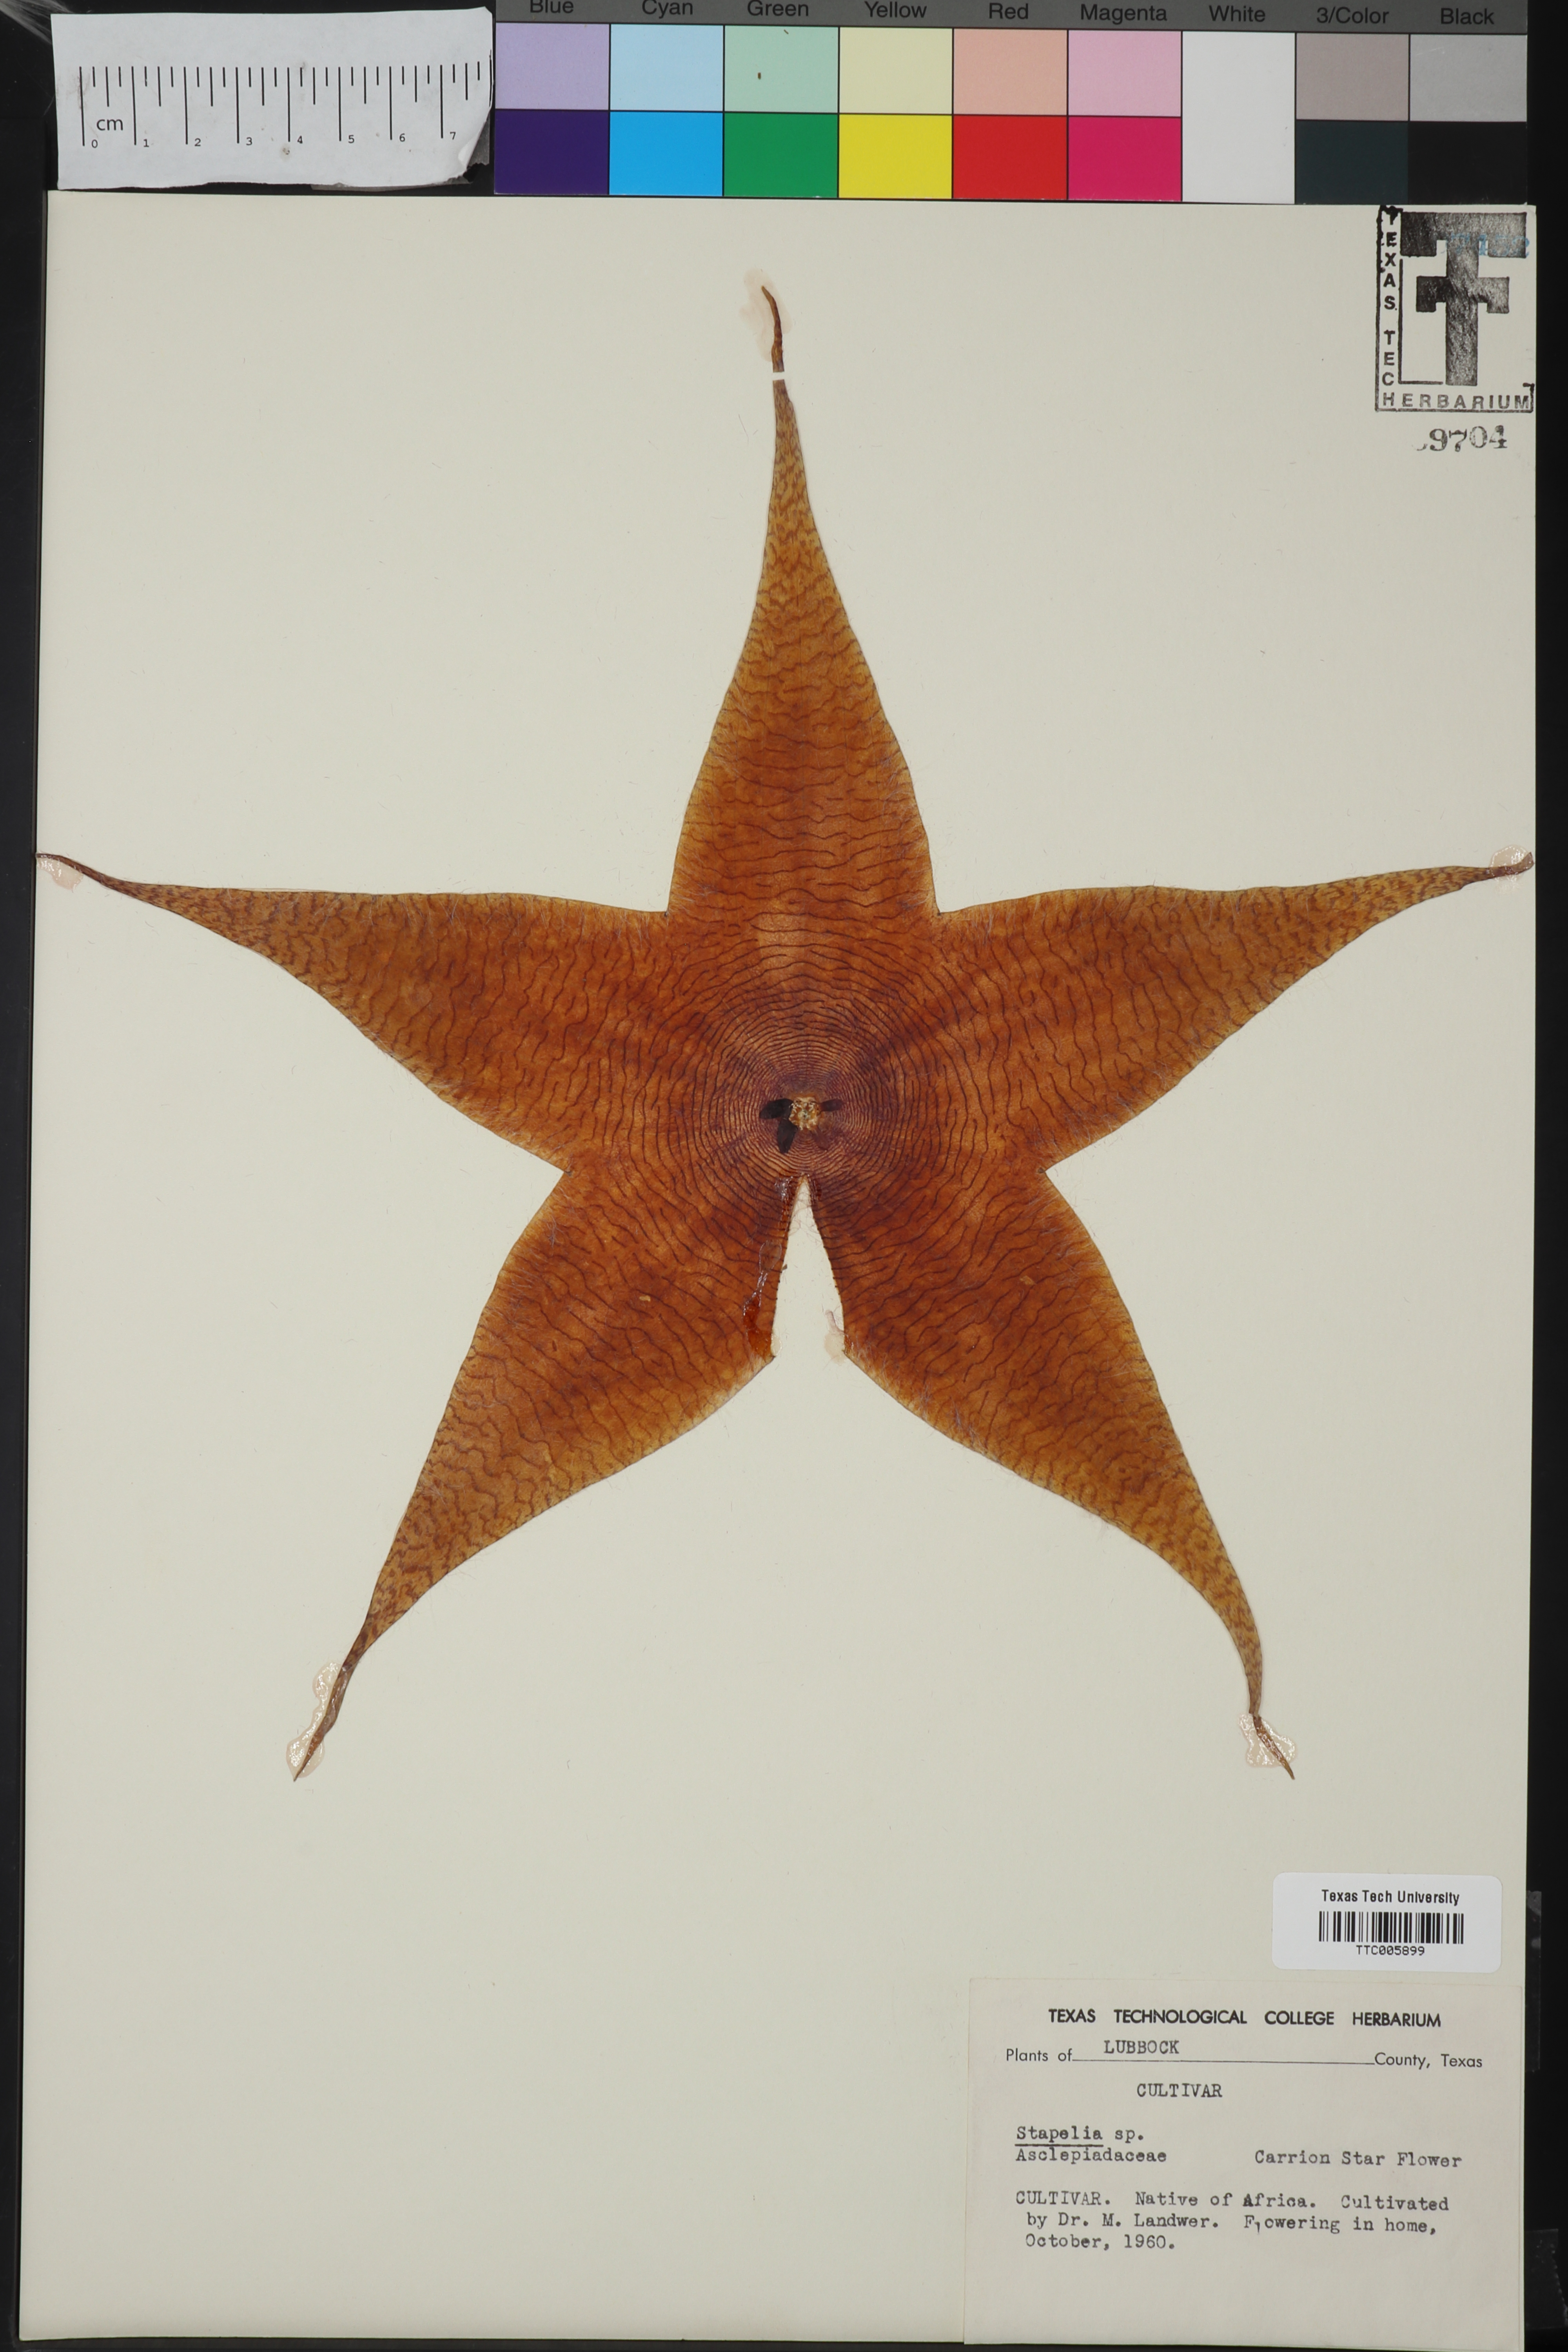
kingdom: Plantae
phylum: Tracheophyta
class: Magnoliopsida
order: Gentianales
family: Apocynaceae
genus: Stapelia
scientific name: Stapelia
